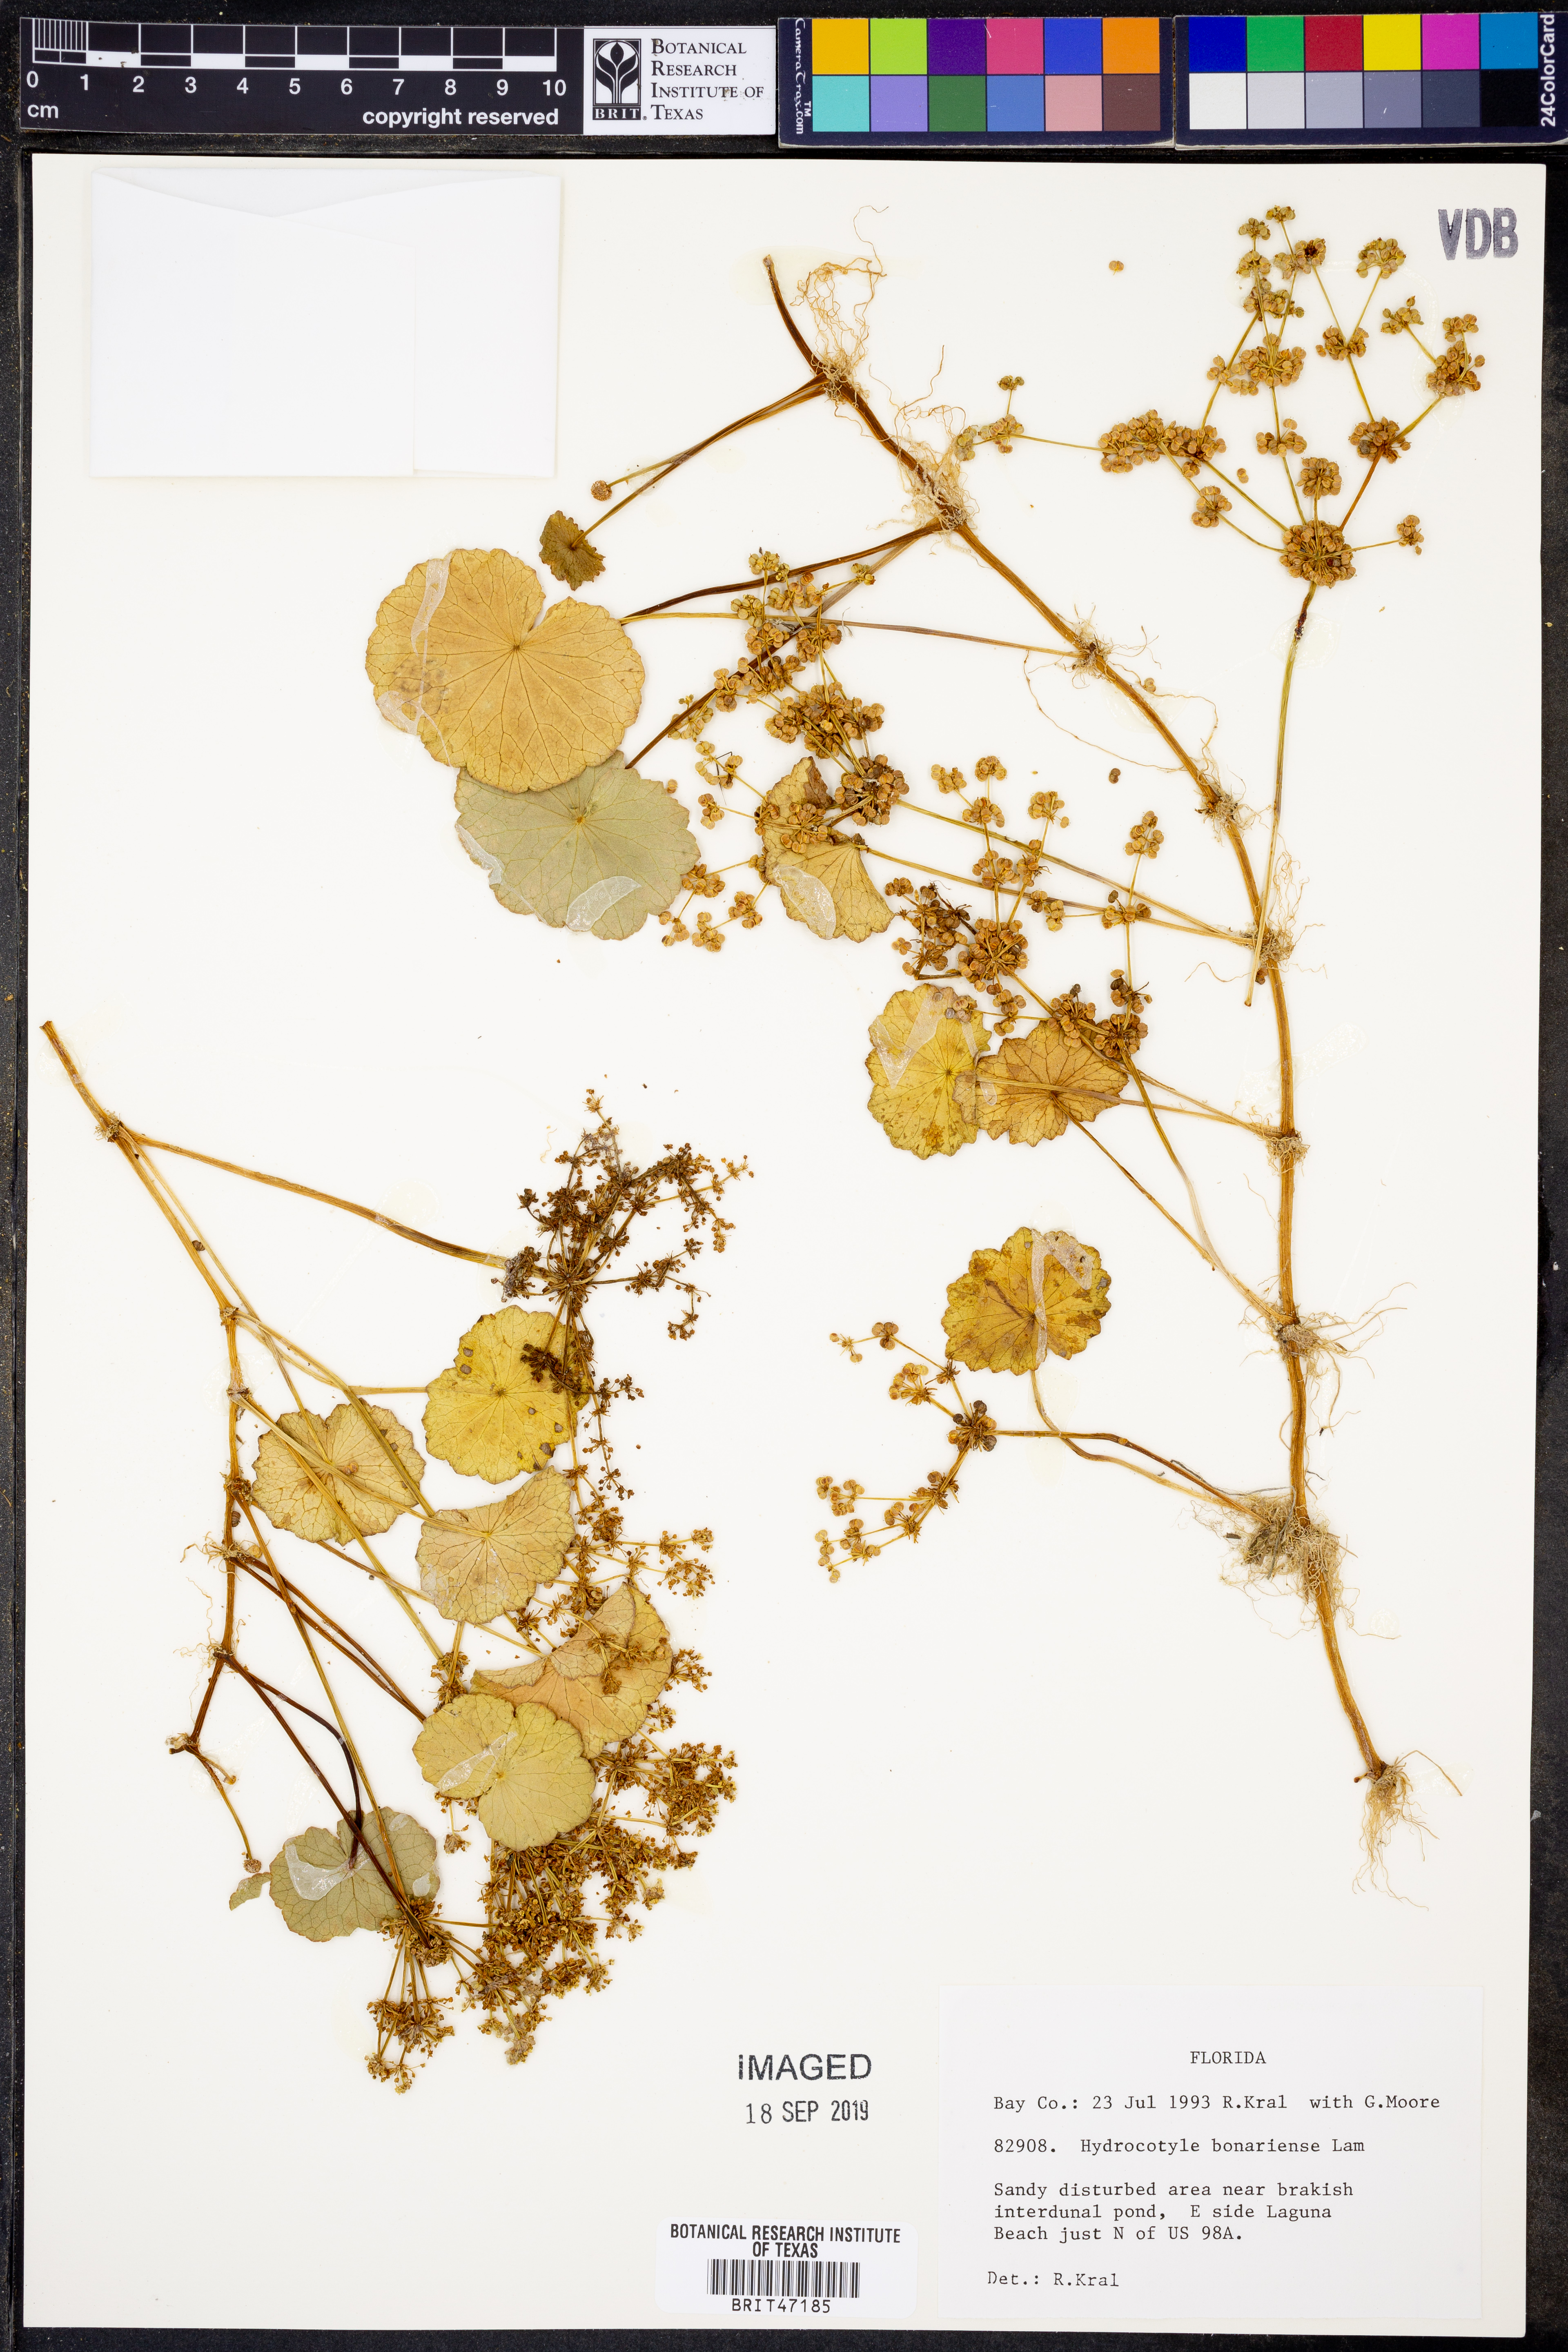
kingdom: Plantae
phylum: Tracheophyta
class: Magnoliopsida
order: Apiales
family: Araliaceae
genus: Hydrocotyle
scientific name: Hydrocotyle bonariensis
